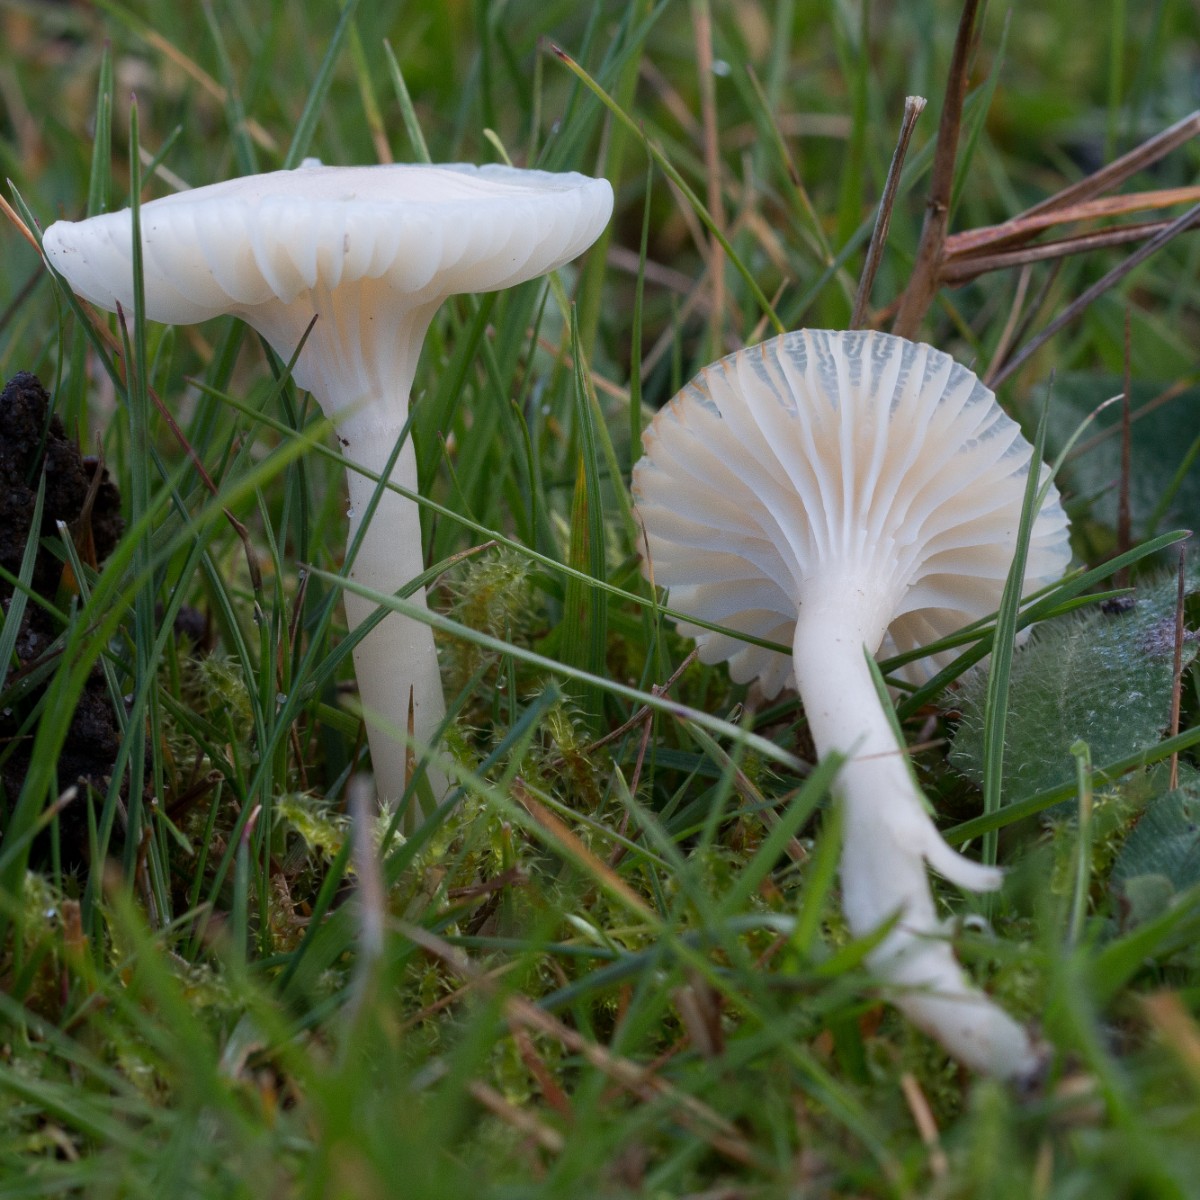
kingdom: Fungi
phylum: Basidiomycota
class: Agaricomycetes
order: Agaricales
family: Hygrophoraceae
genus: Cuphophyllus
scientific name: Cuphophyllus virgineus
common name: snehvid vokshat
